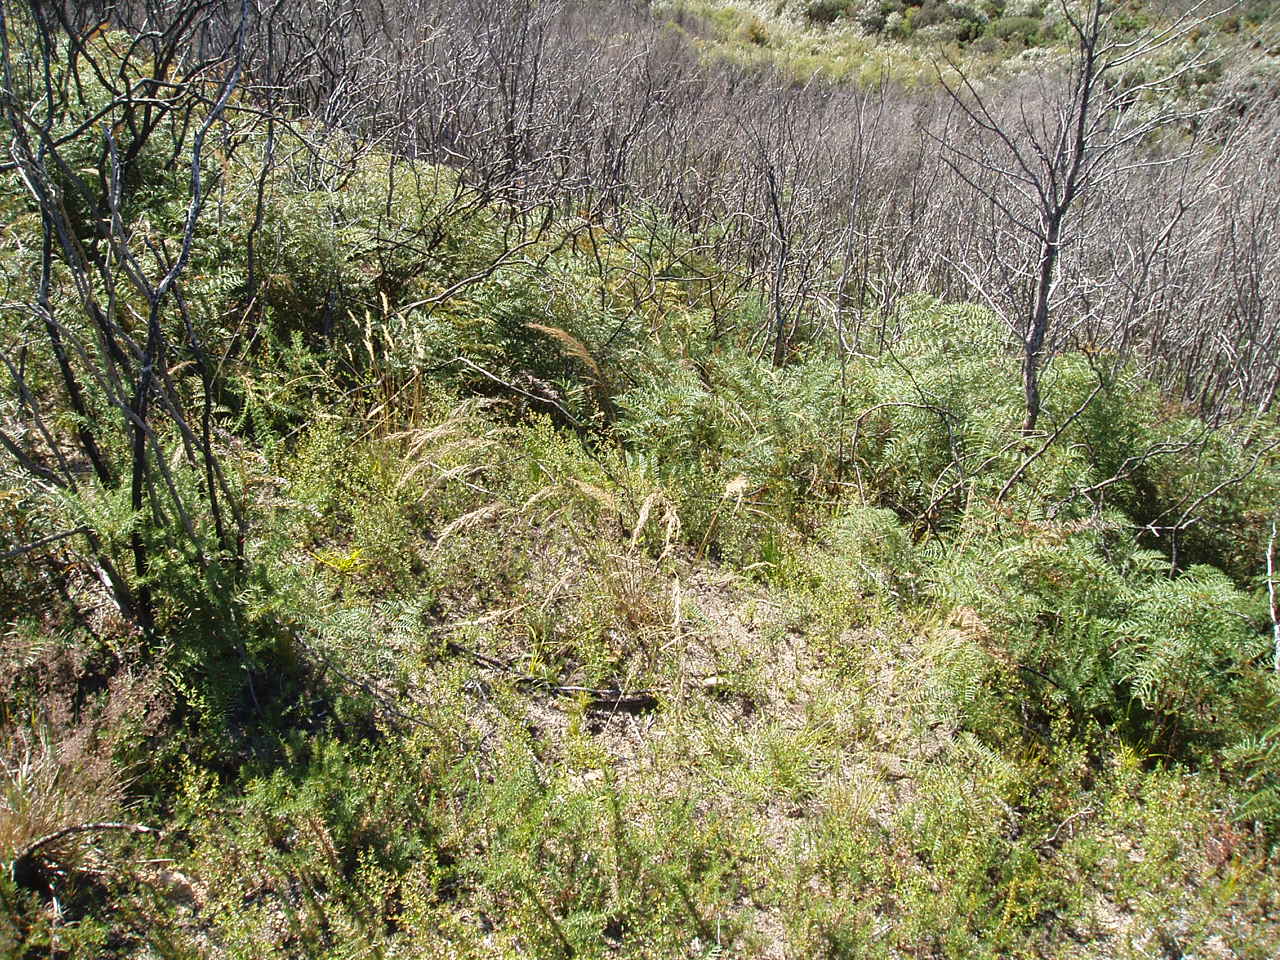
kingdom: Plantae
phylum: Tracheophyta
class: Liliopsida
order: Poales
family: Poaceae
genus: Dichelachne
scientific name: Dichelachne sieberiana
